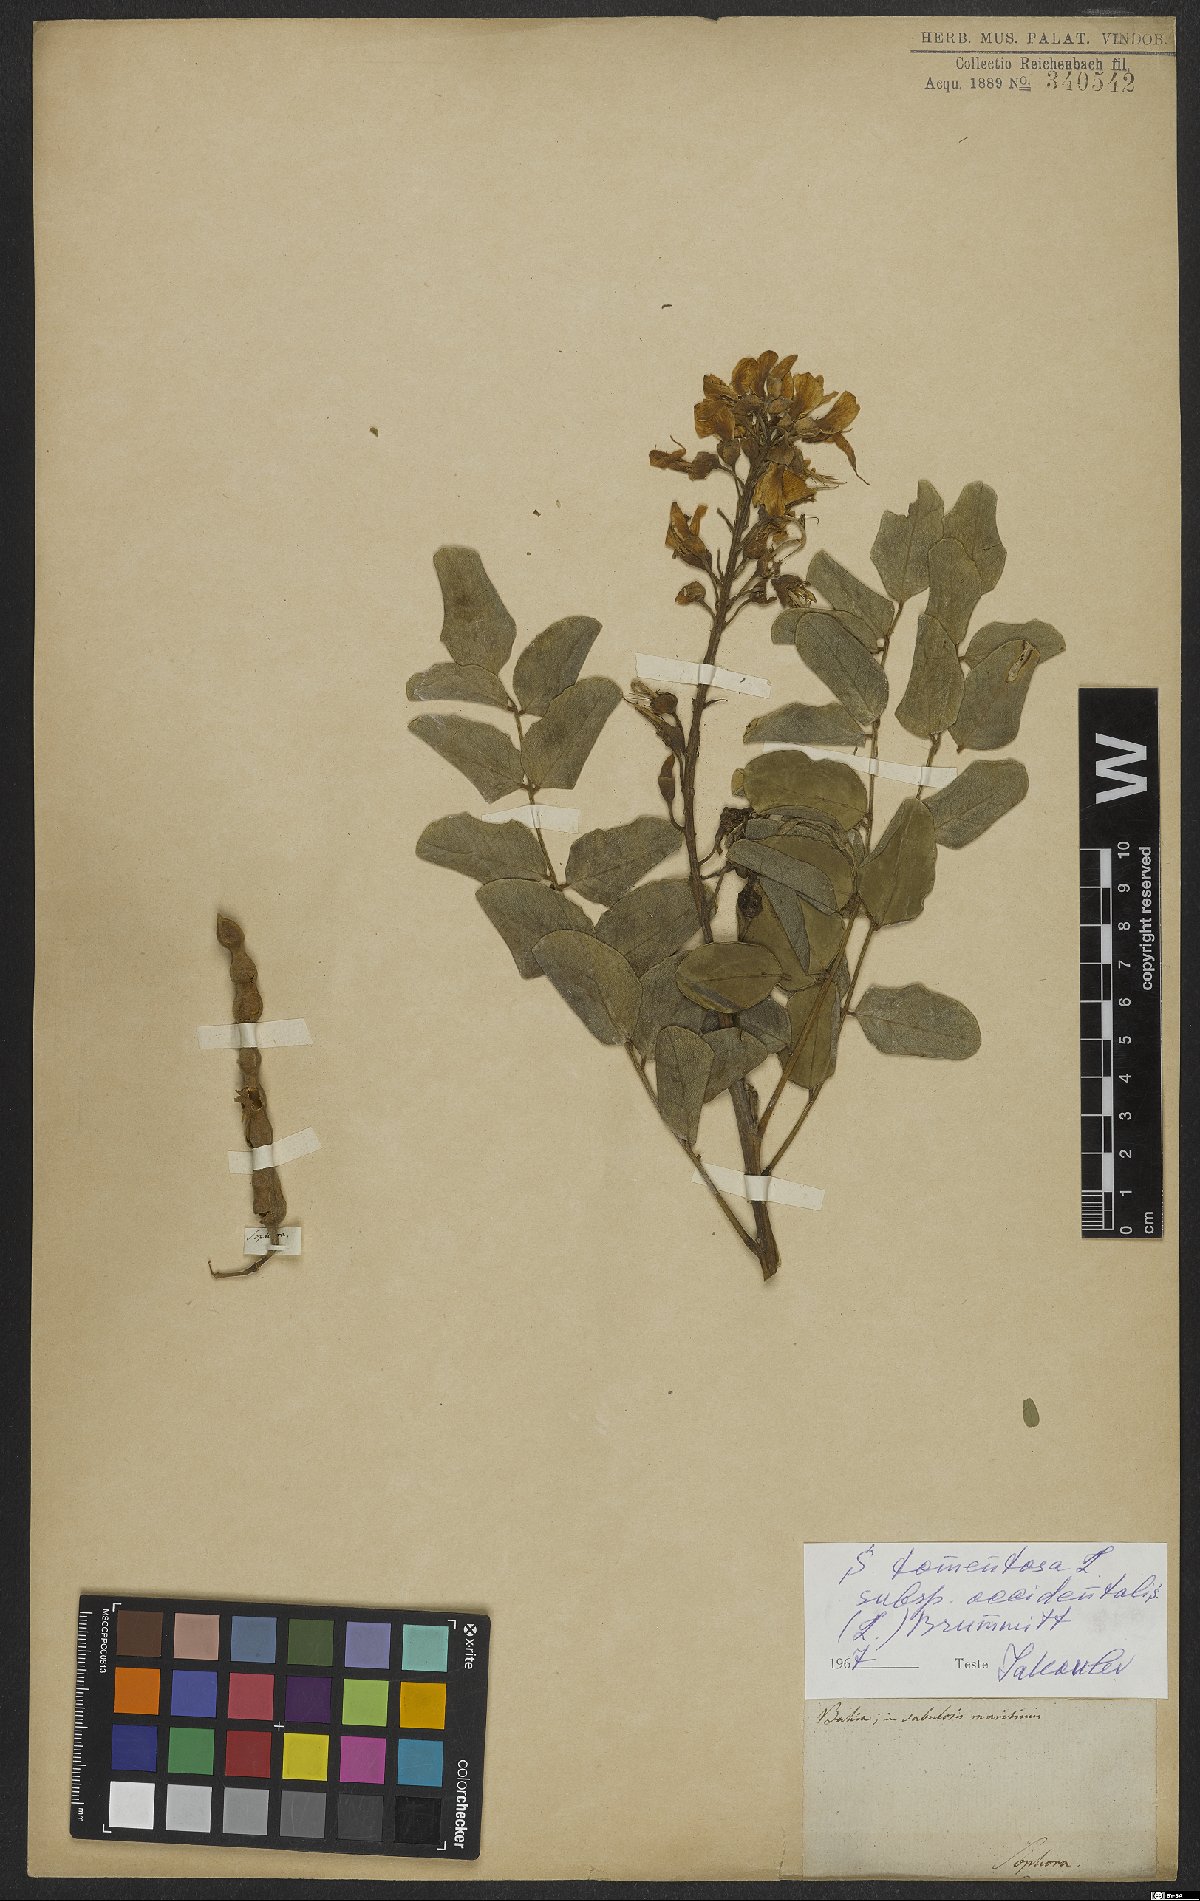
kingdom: Plantae
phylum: Tracheophyta
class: Magnoliopsida
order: Fabales
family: Fabaceae
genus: Sophora
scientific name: Sophora tomentosa
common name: Yellow necklacepod
